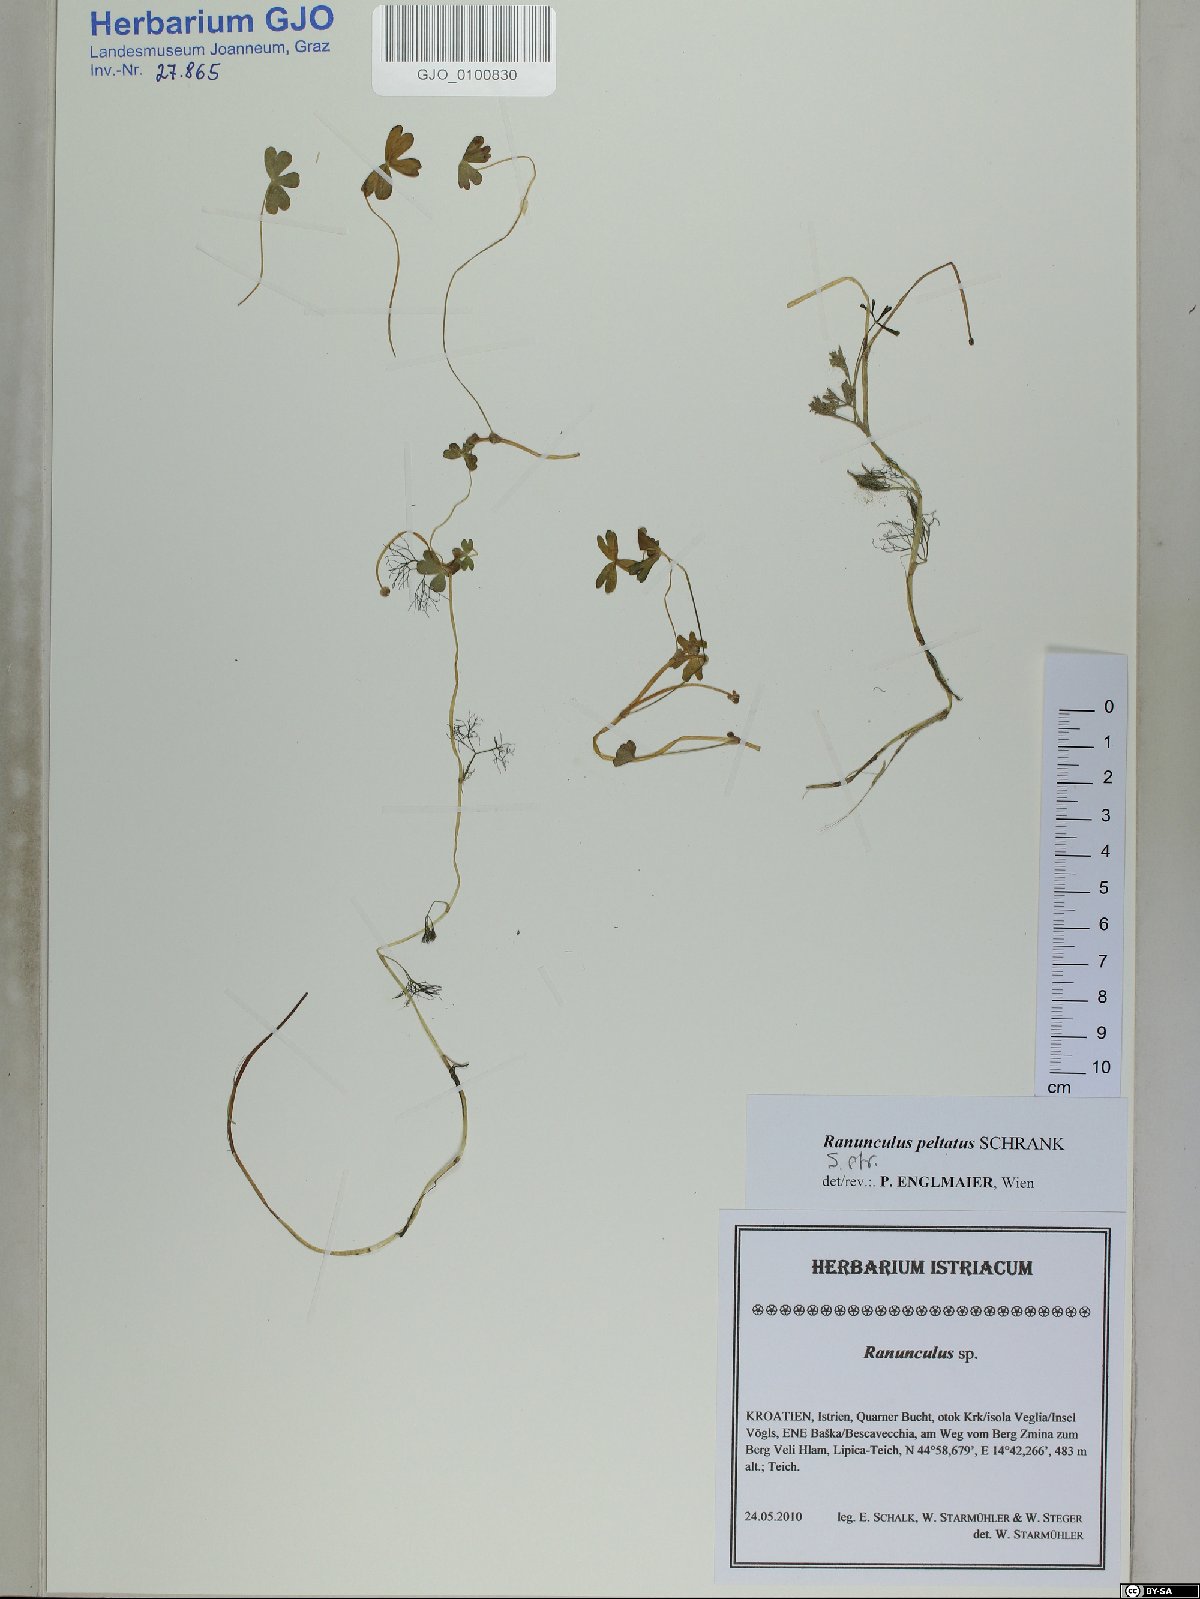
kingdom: Plantae
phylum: Tracheophyta
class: Magnoliopsida
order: Ranunculales
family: Ranunculaceae
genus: Ranunculus
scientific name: Ranunculus peltatus
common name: Pond water-crowfoot
